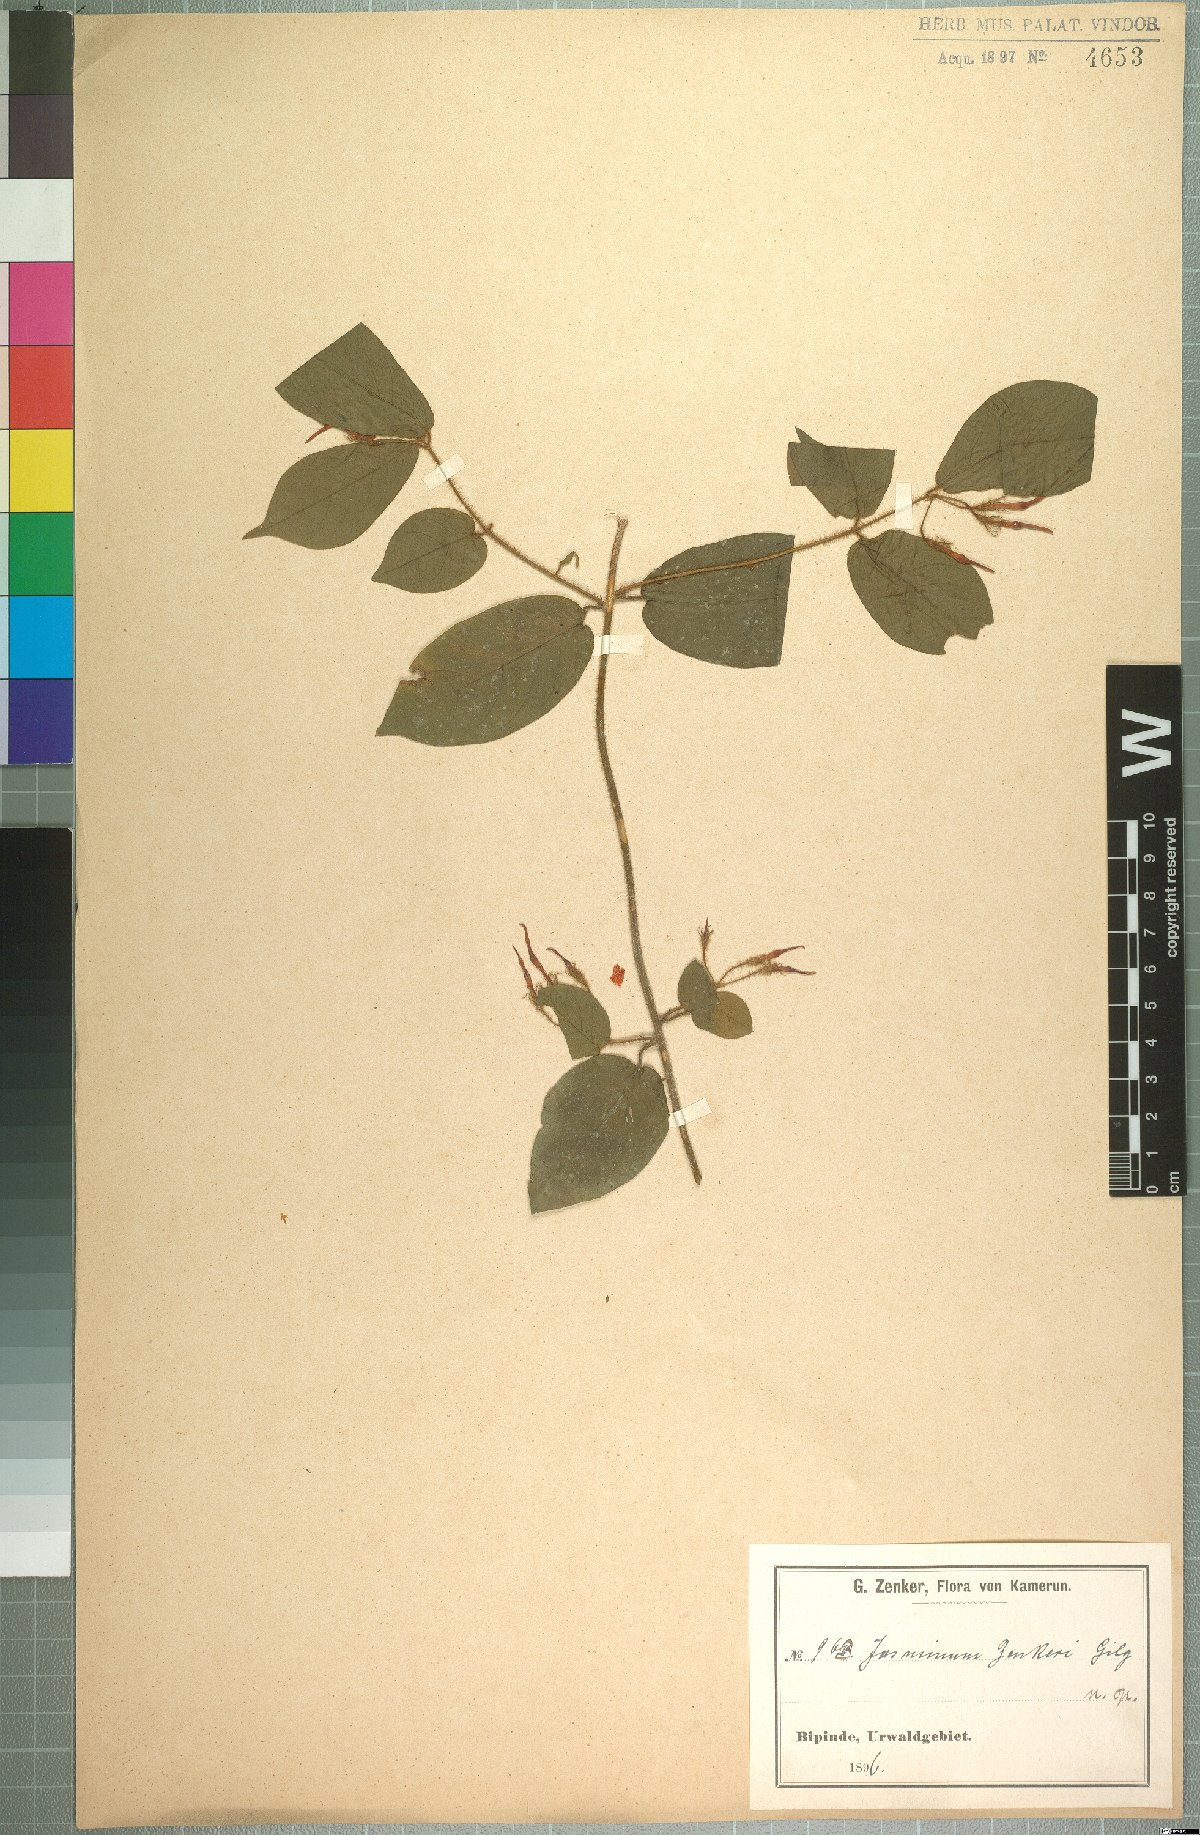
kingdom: Plantae
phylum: Tracheophyta
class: Magnoliopsida
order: Lamiales
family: Oleaceae
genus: Jasminum
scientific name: Jasminum preussii
